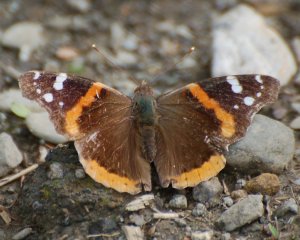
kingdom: Animalia
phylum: Arthropoda
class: Insecta
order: Lepidoptera
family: Nymphalidae
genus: Vanessa
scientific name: Vanessa atalanta
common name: Red Admiral
